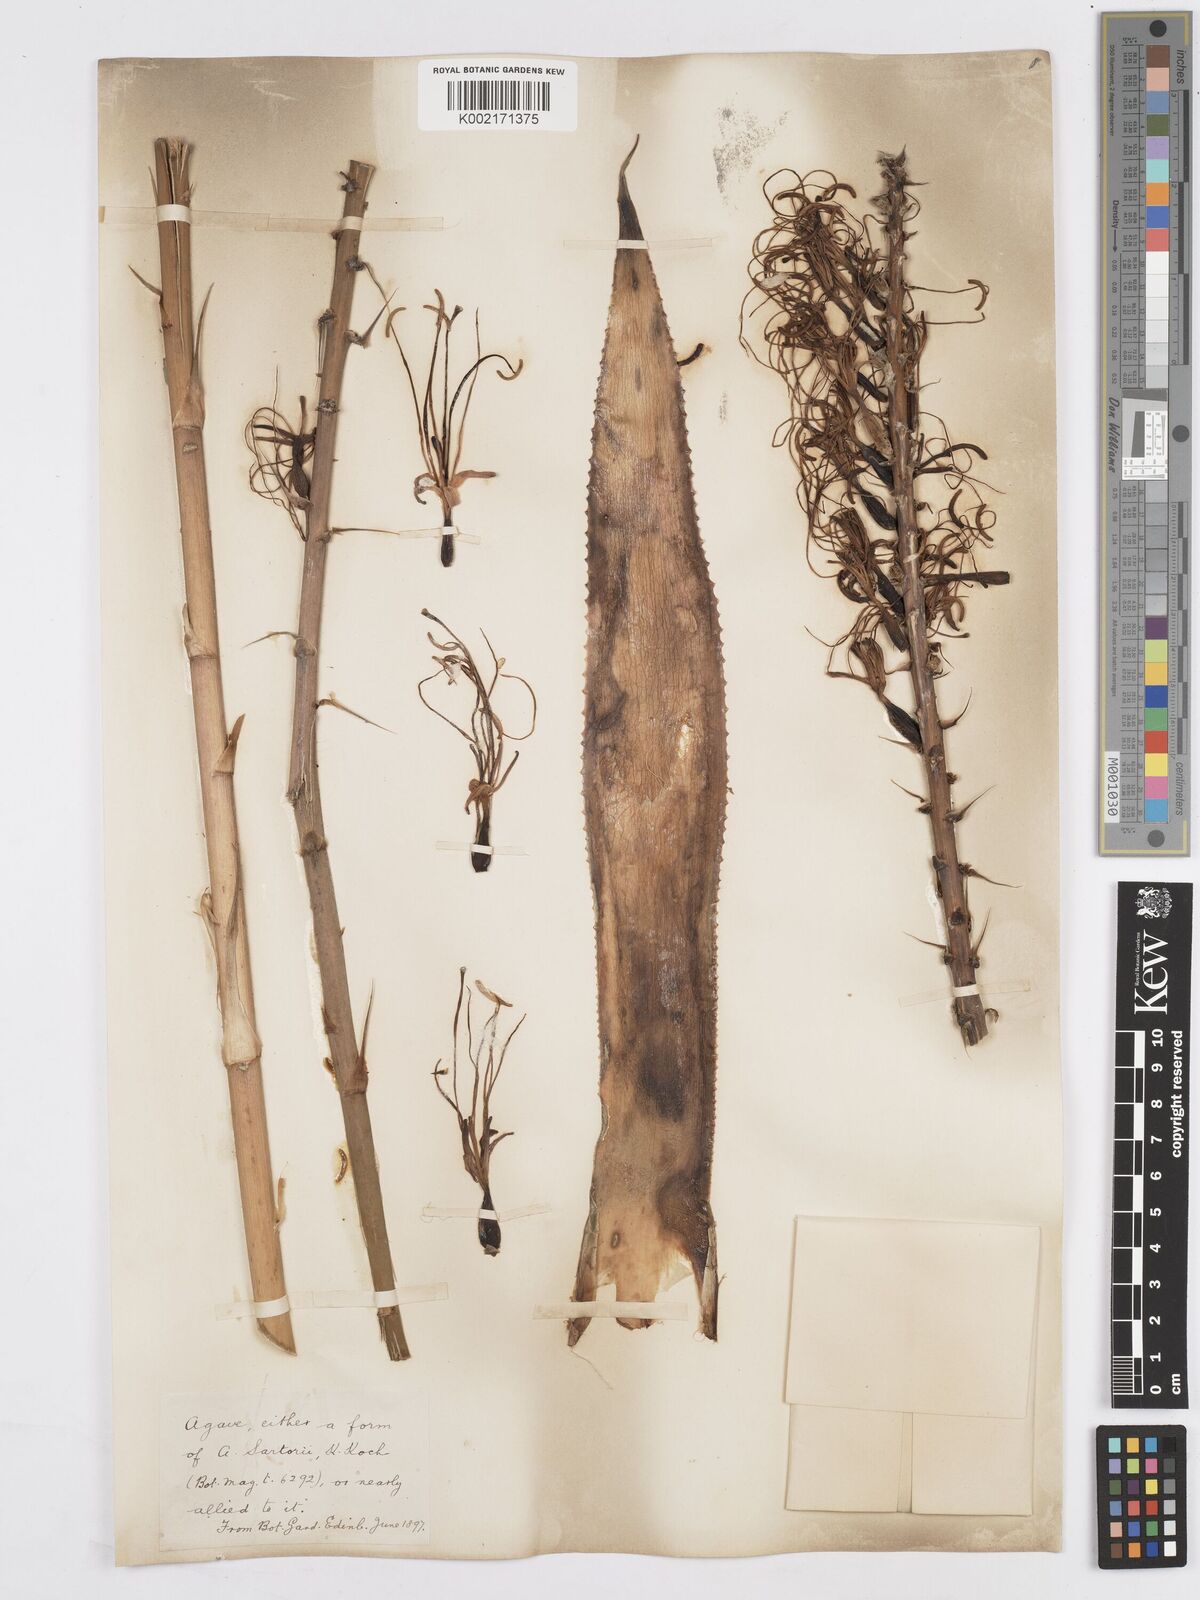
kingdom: Plantae
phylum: Tracheophyta
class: Liliopsida
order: Asparagales
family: Asparagaceae
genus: Agave
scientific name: Agave pendula
